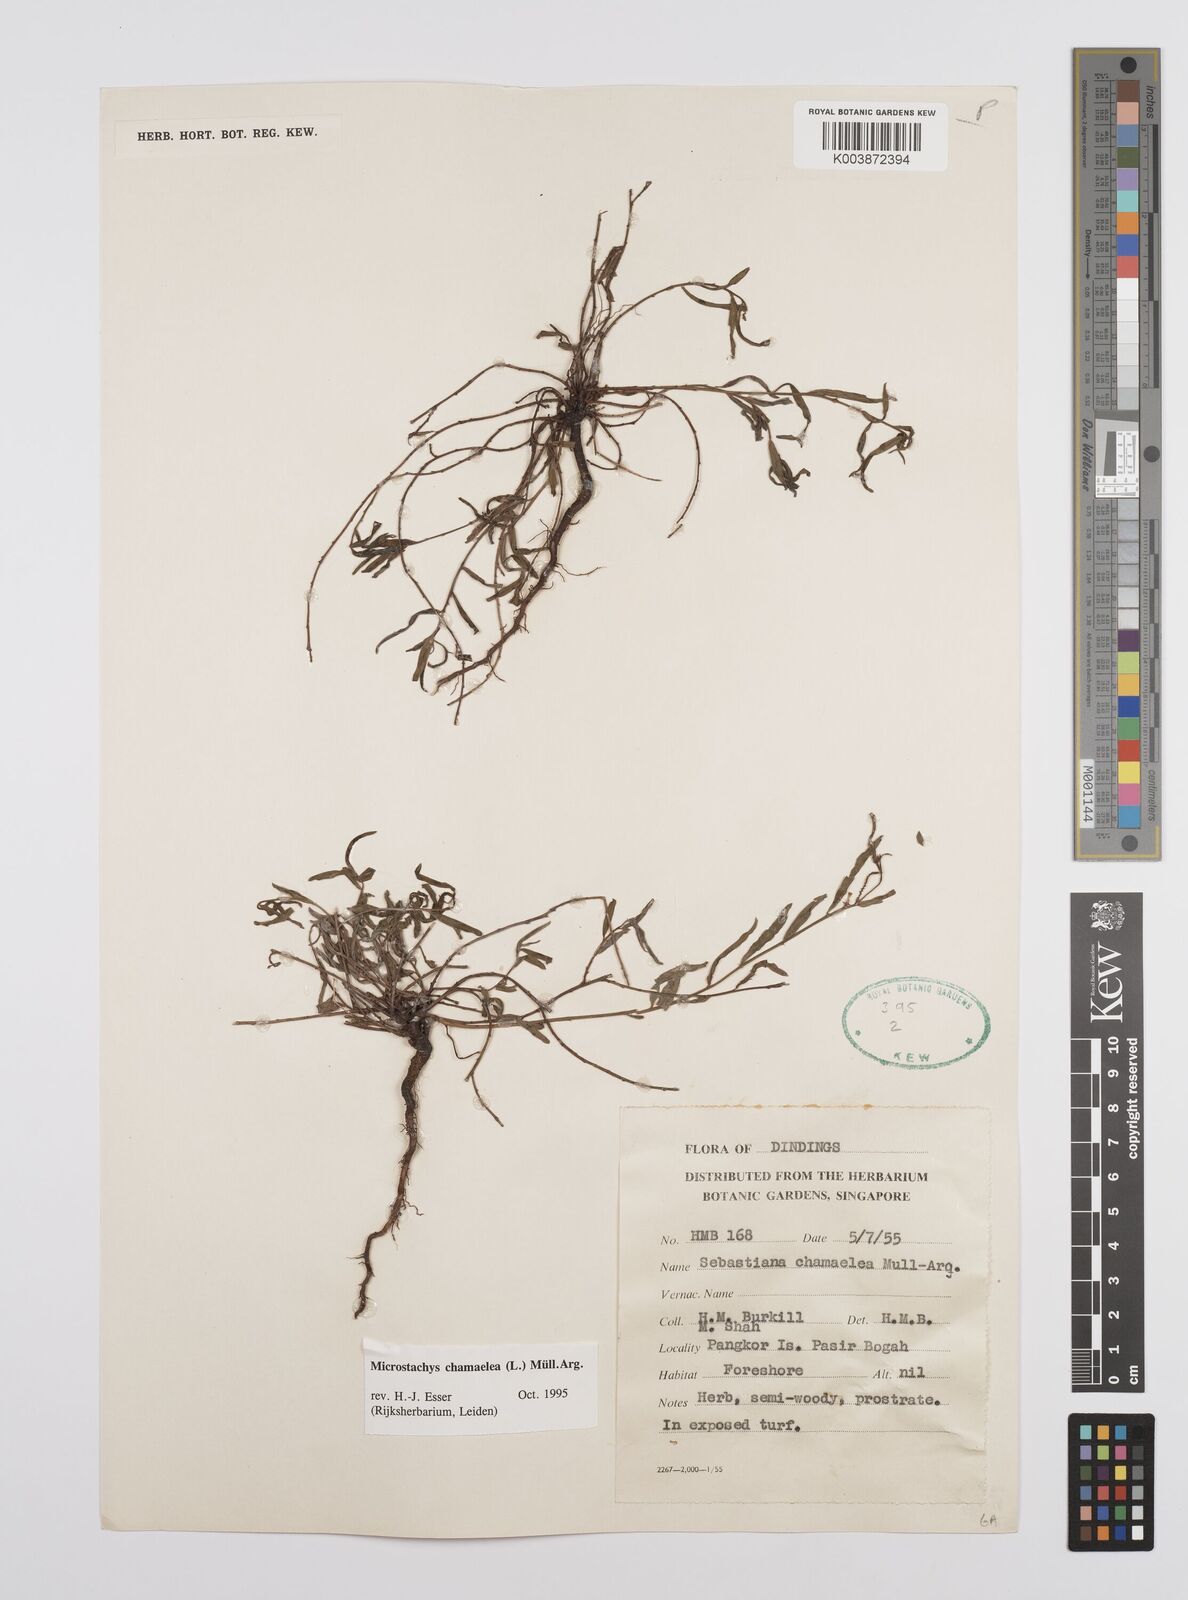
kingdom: Plantae
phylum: Tracheophyta
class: Magnoliopsida
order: Malpighiales
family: Euphorbiaceae
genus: Microstachys
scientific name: Microstachys chamaelea
